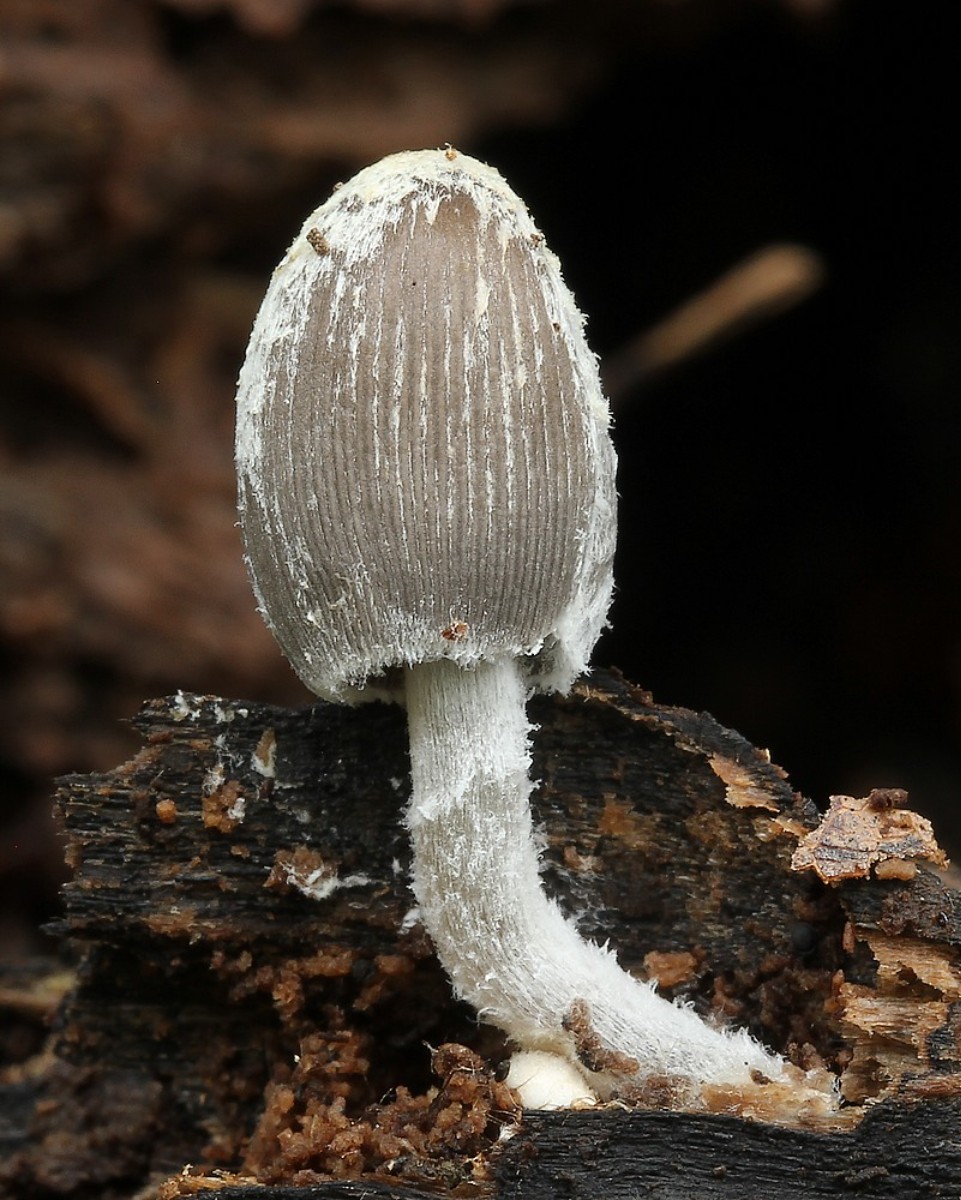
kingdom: Fungi
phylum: Basidiomycota
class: Agaricomycetes
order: Agaricales
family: Psathyrellaceae
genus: Coprinopsis
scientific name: Coprinopsis
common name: blækhat
